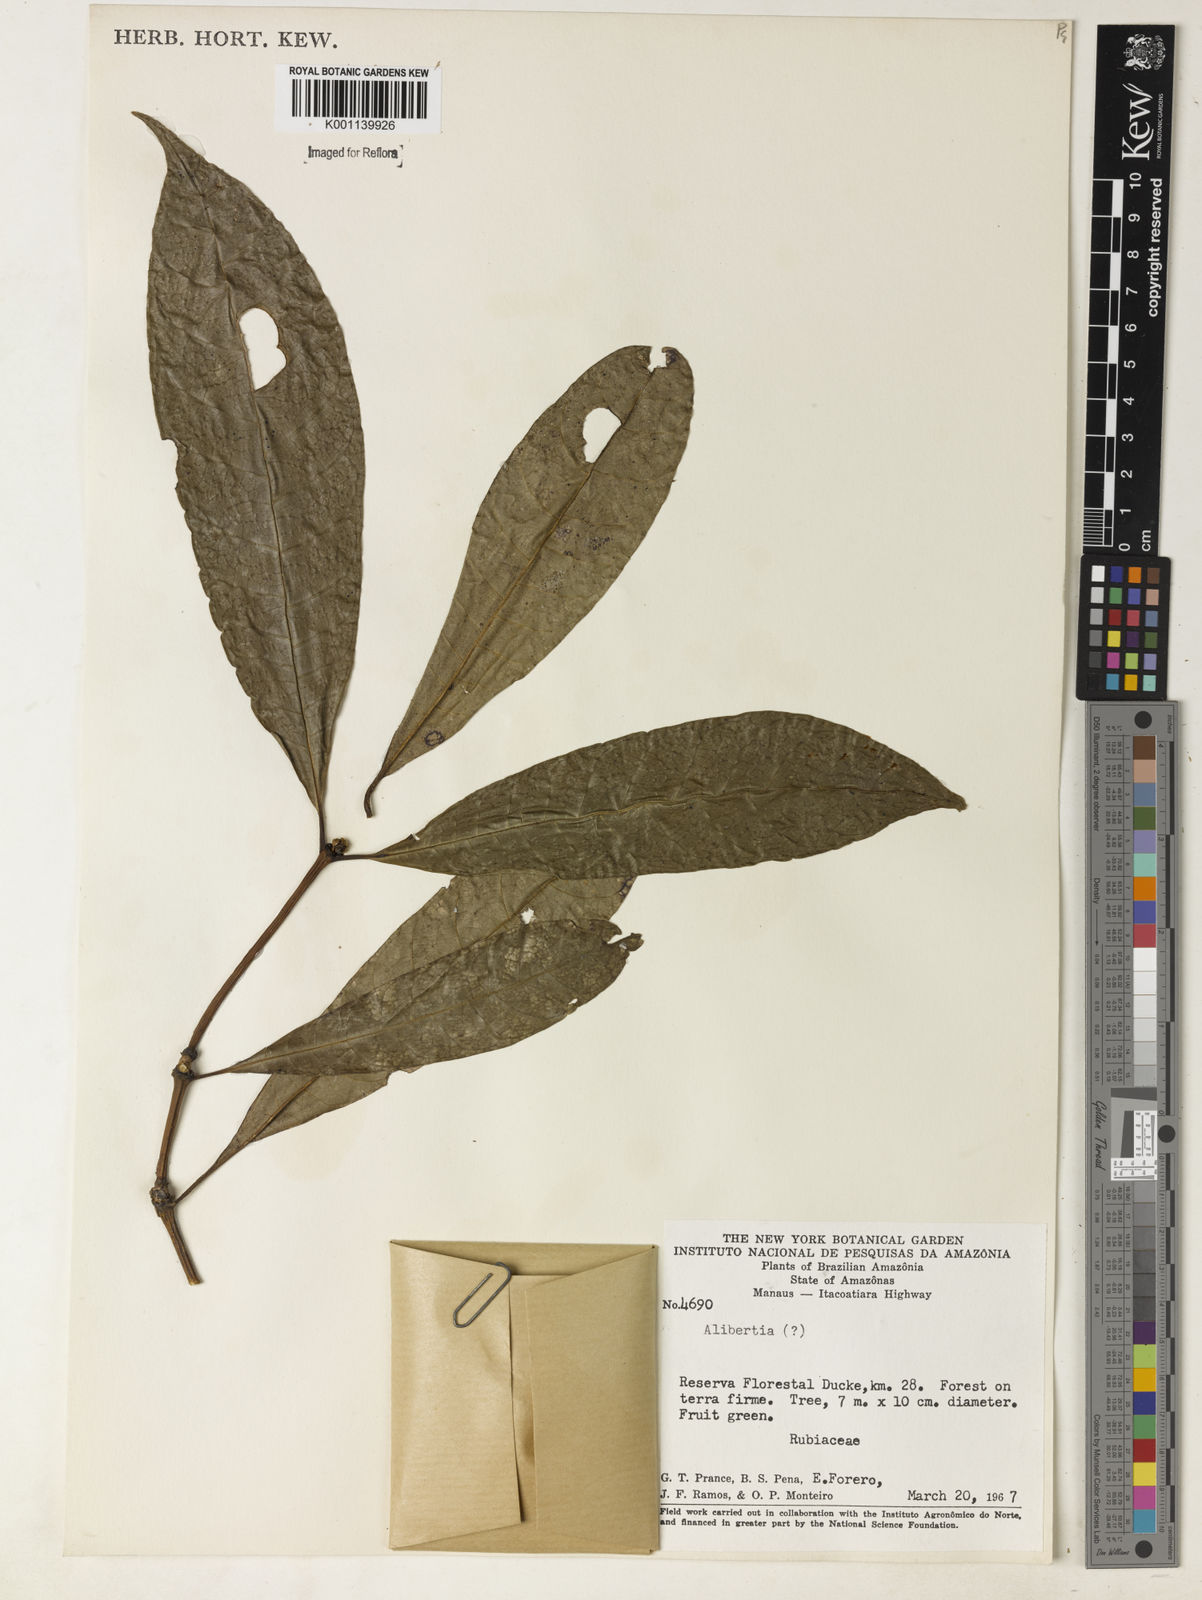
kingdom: Plantae
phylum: Tracheophyta
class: Magnoliopsida
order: Gentianales
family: Rubiaceae
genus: Alibertia
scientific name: Alibertia
